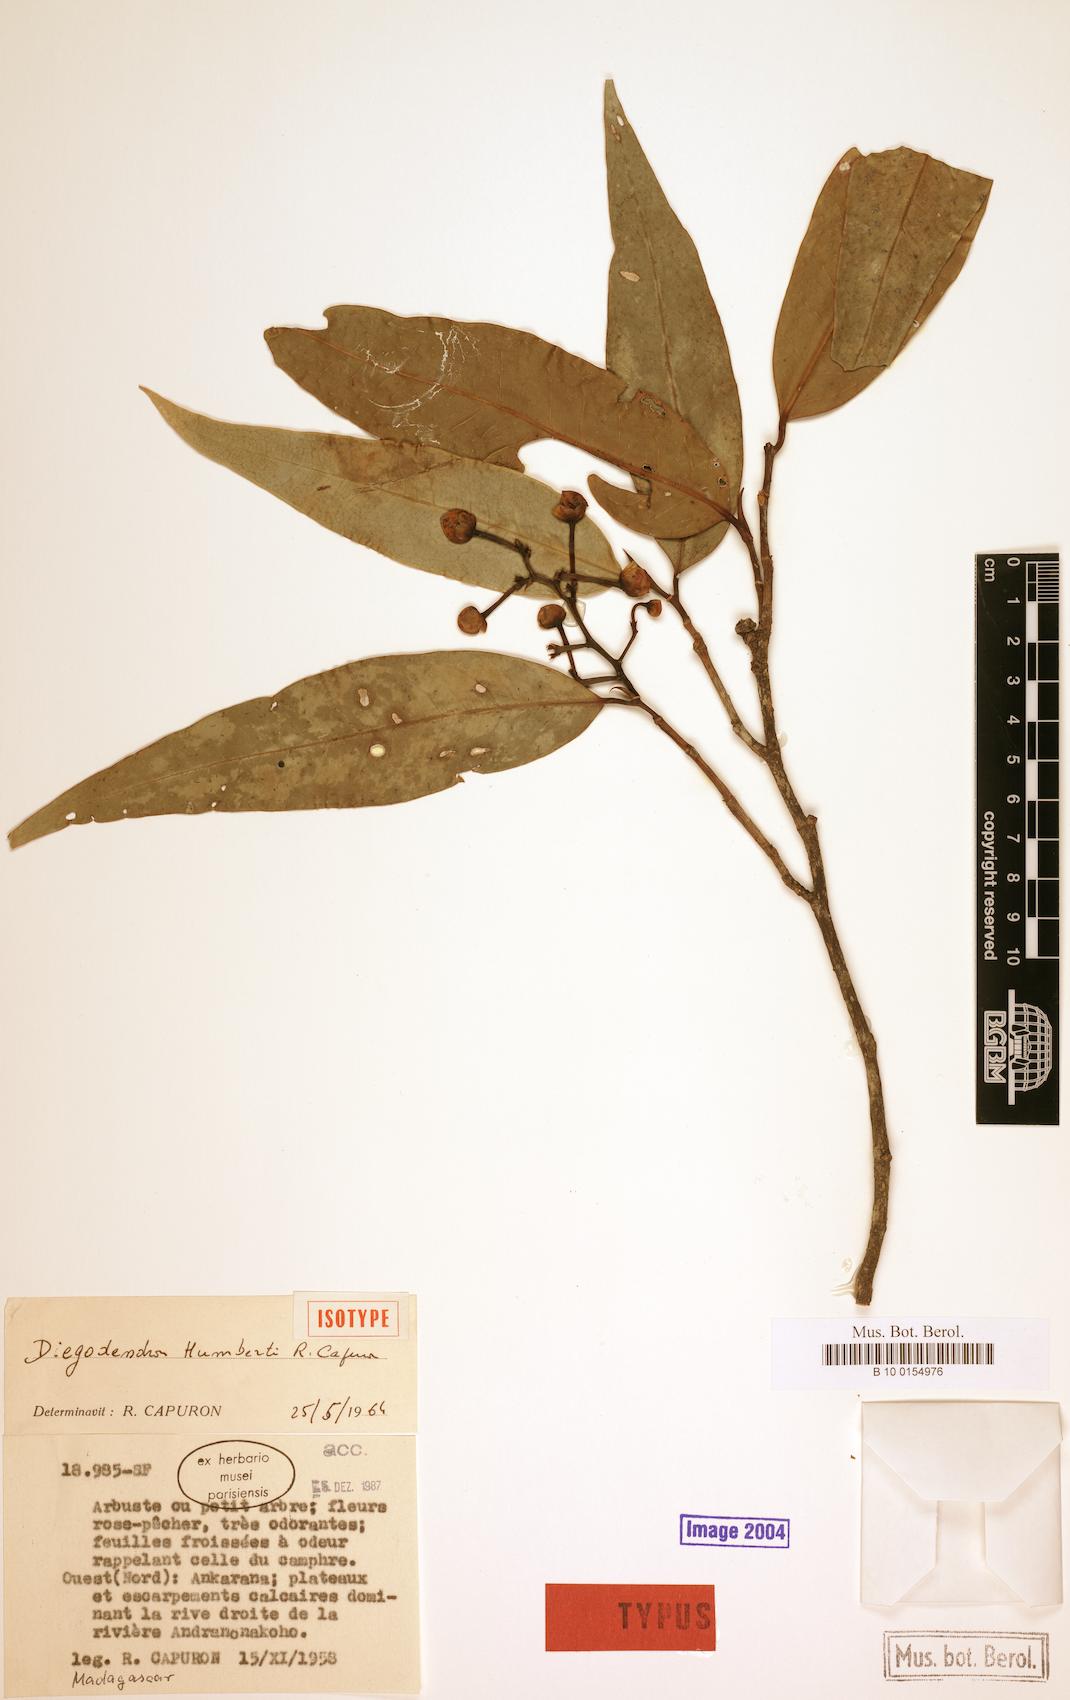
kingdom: Plantae
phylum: Tracheophyta
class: Magnoliopsida
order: Malvales
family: Diegodendraceae
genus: Diegodendron
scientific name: Diegodendron humbertii
